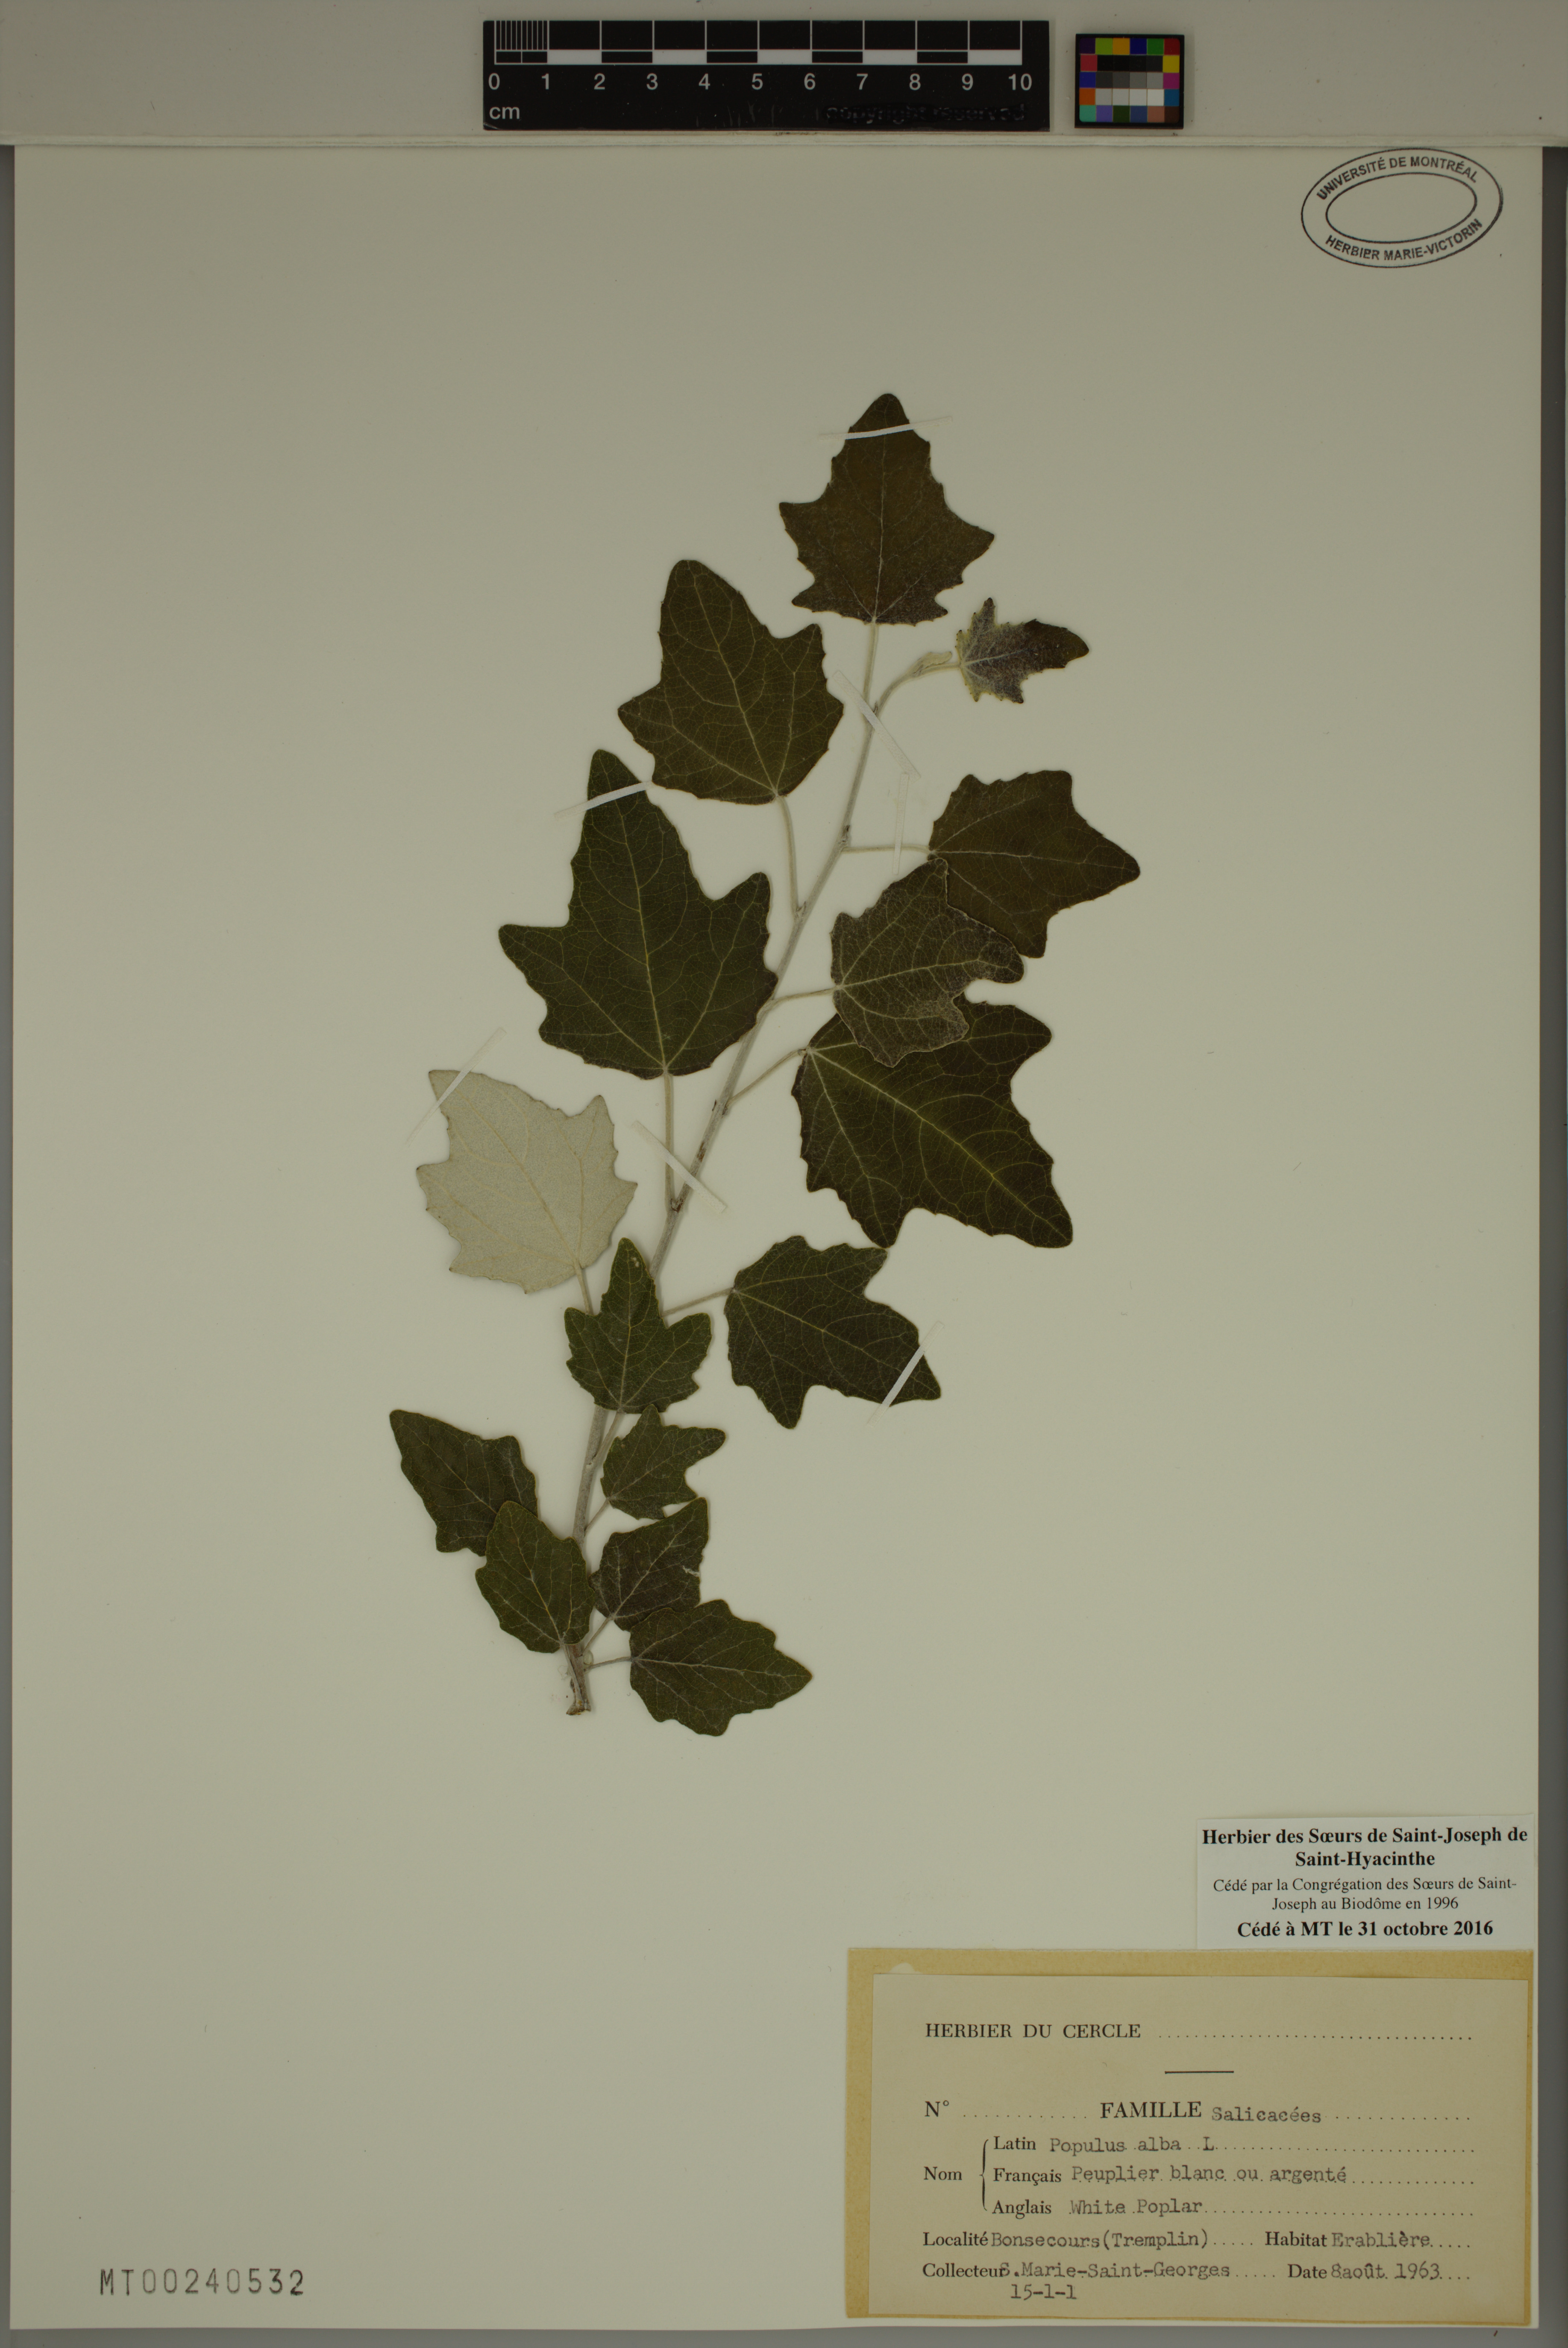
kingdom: Plantae
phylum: Tracheophyta
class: Magnoliopsida
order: Malpighiales
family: Salicaceae
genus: Populus
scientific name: Populus alba
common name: White poplar
